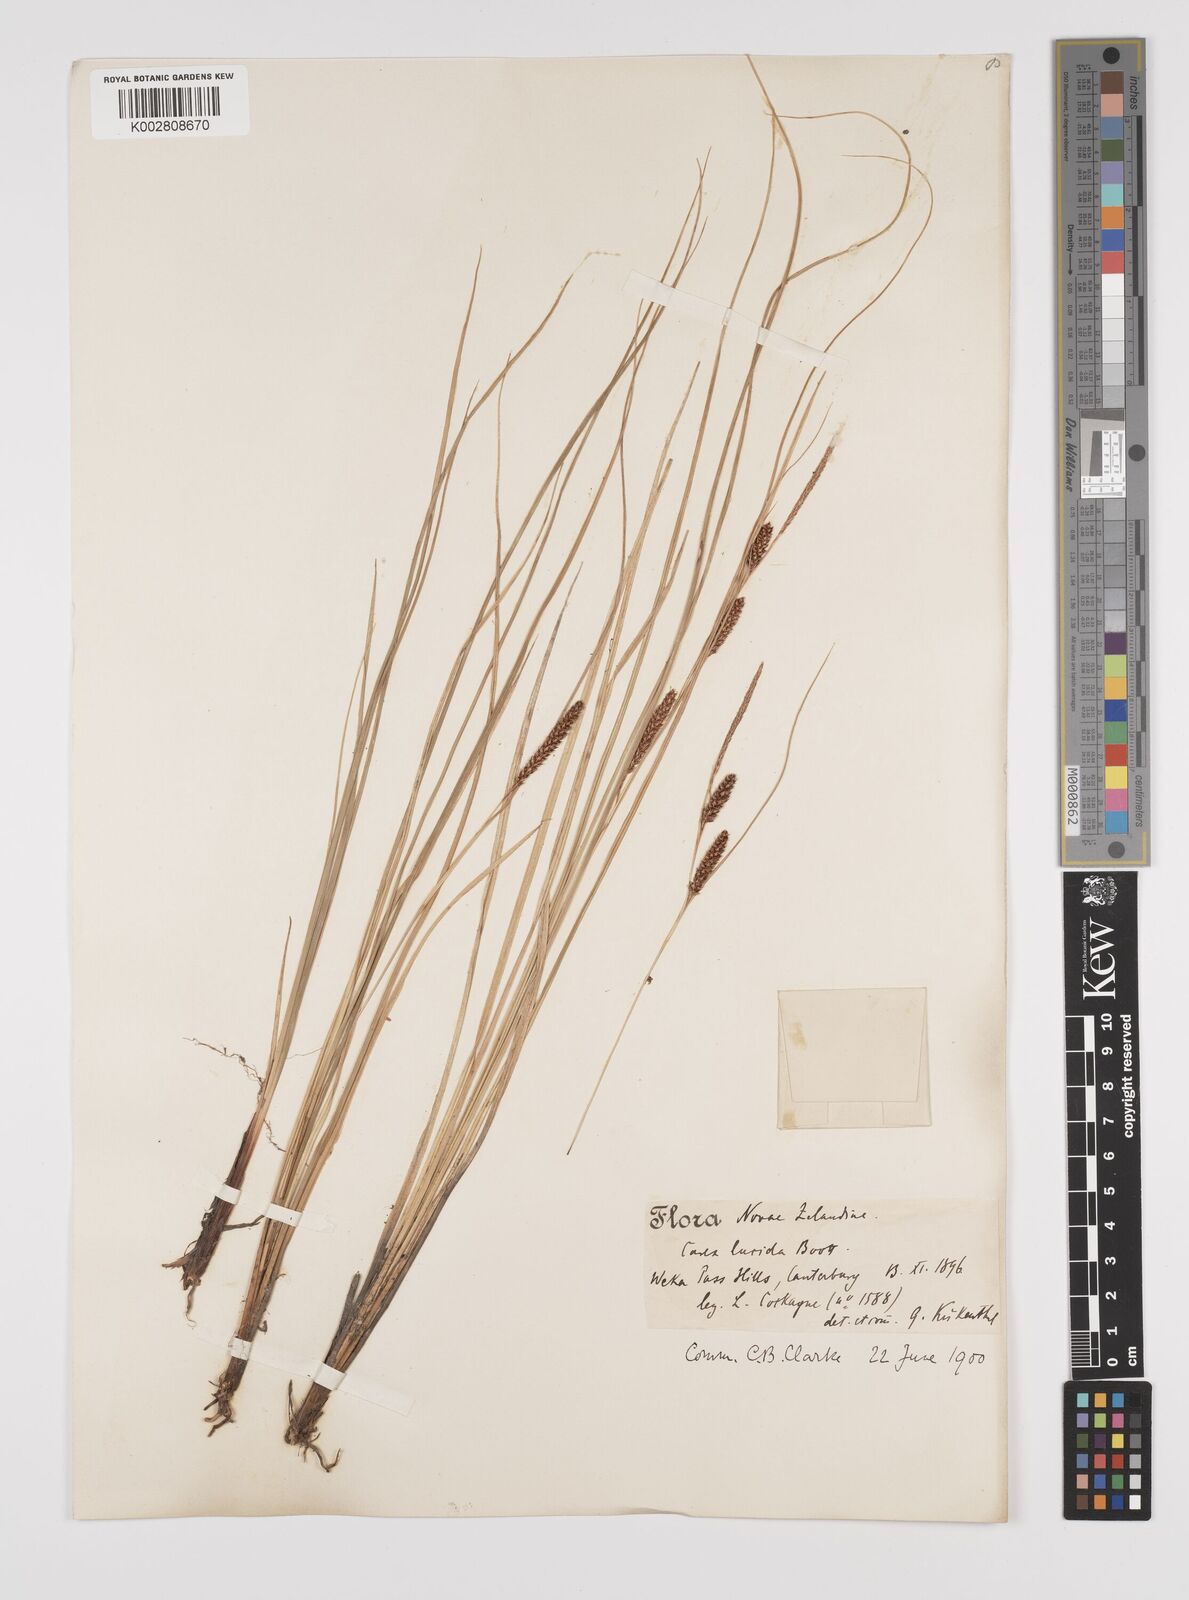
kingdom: Plantae
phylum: Tracheophyta
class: Liliopsida
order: Poales
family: Cyperaceae
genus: Carex
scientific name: Carex flagellifera
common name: Glen murray tussock
